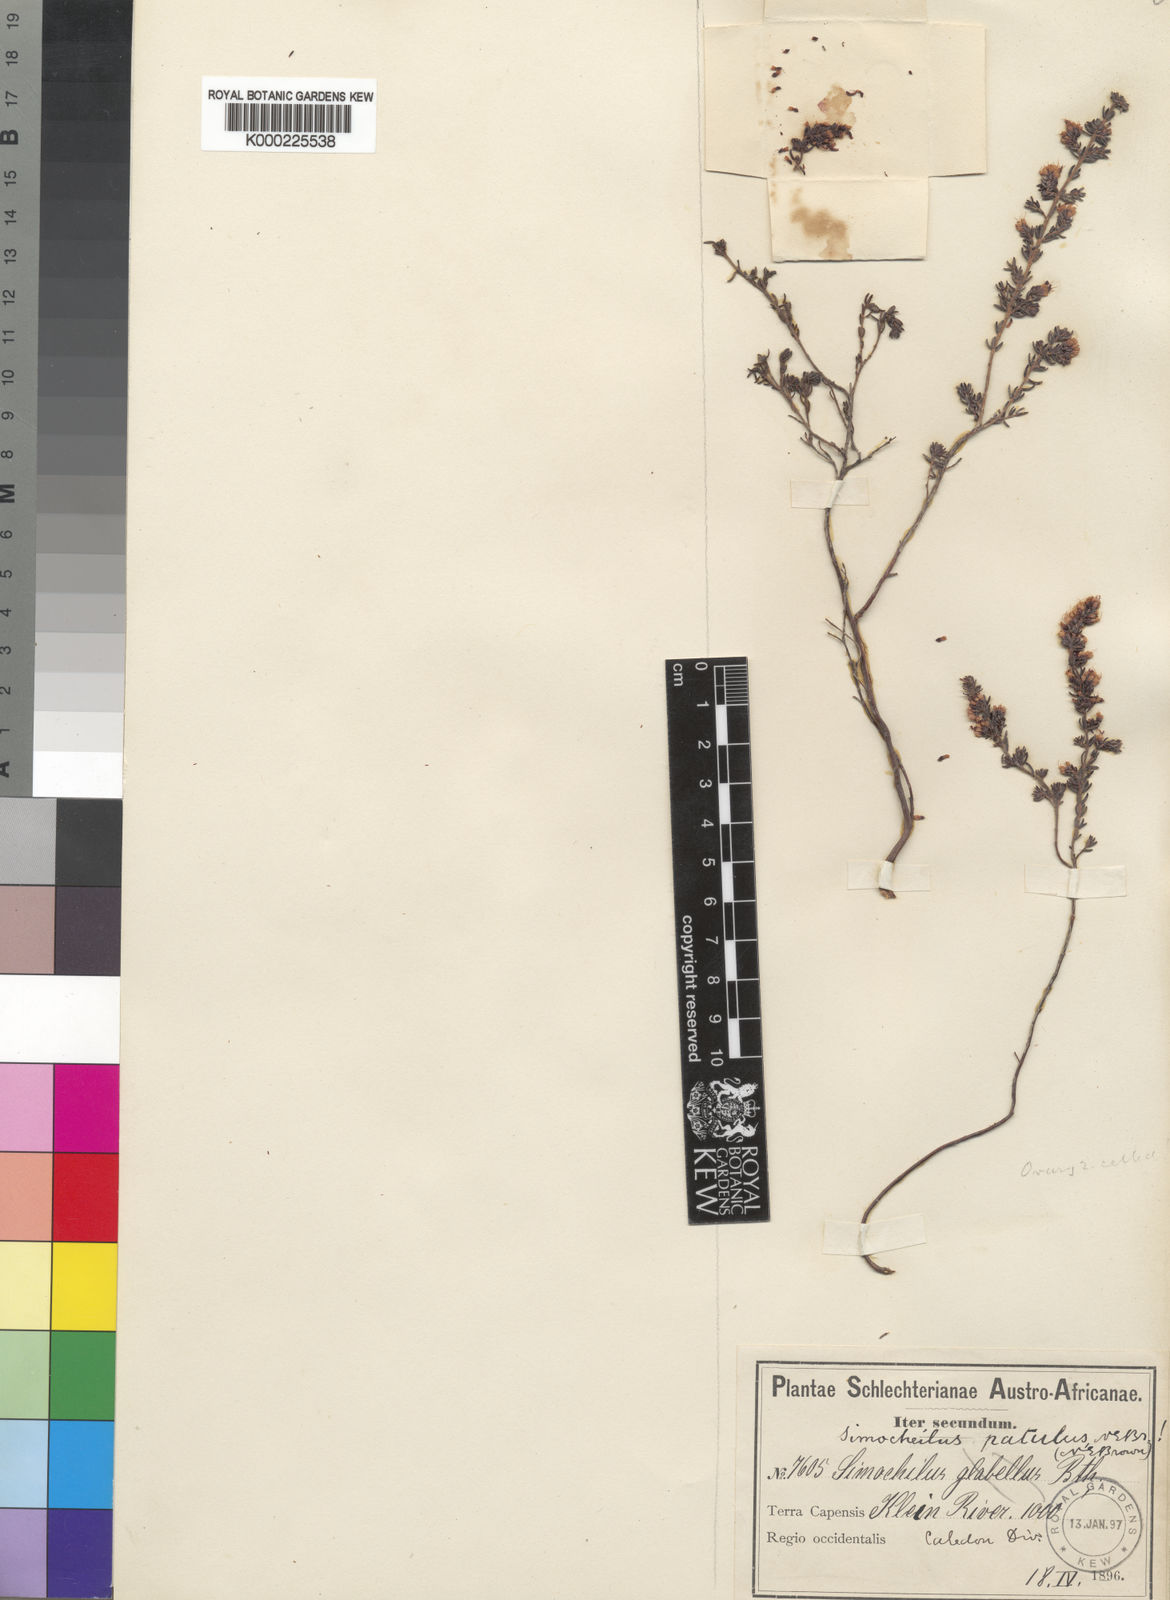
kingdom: Plantae
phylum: Tracheophyta
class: Magnoliopsida
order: Ericales
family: Ericaceae
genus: Erica
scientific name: Erica glabella
